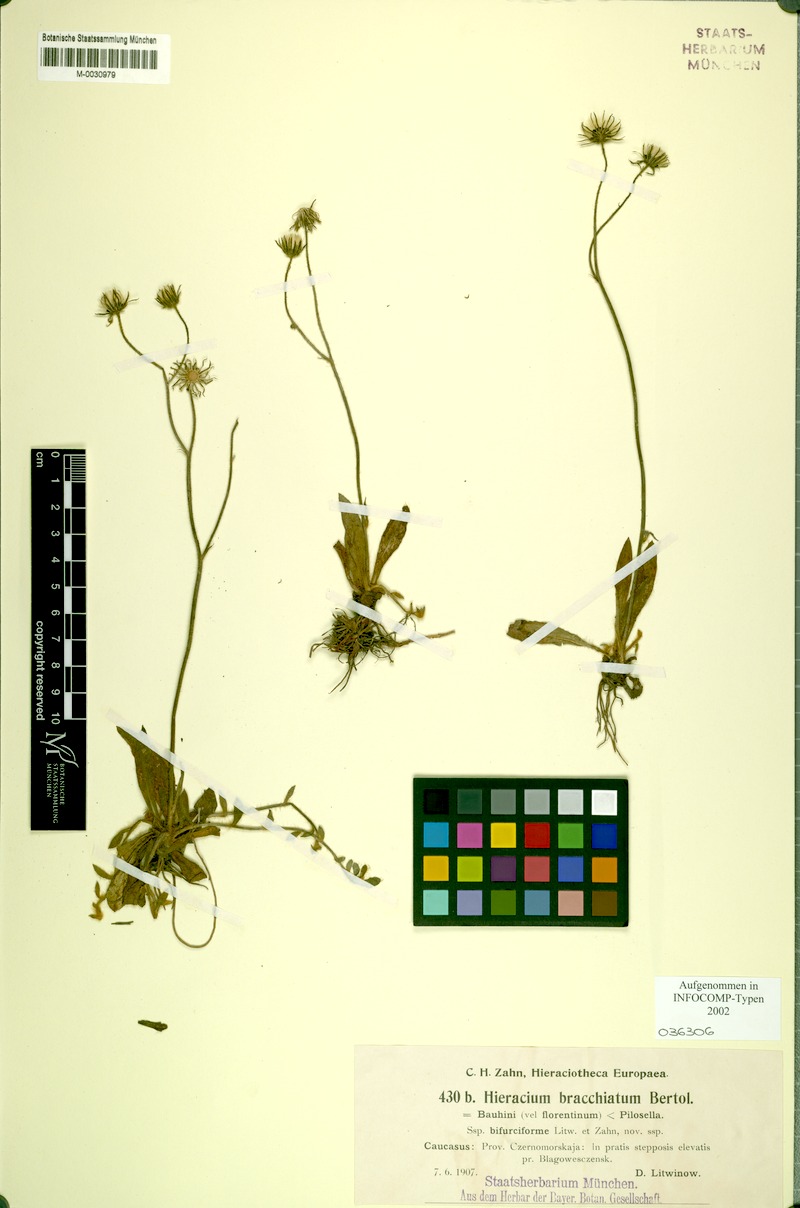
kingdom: Plantae
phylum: Tracheophyta
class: Magnoliopsida
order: Asterales
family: Asteraceae
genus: Pilosella
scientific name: Pilosella acutifolia
